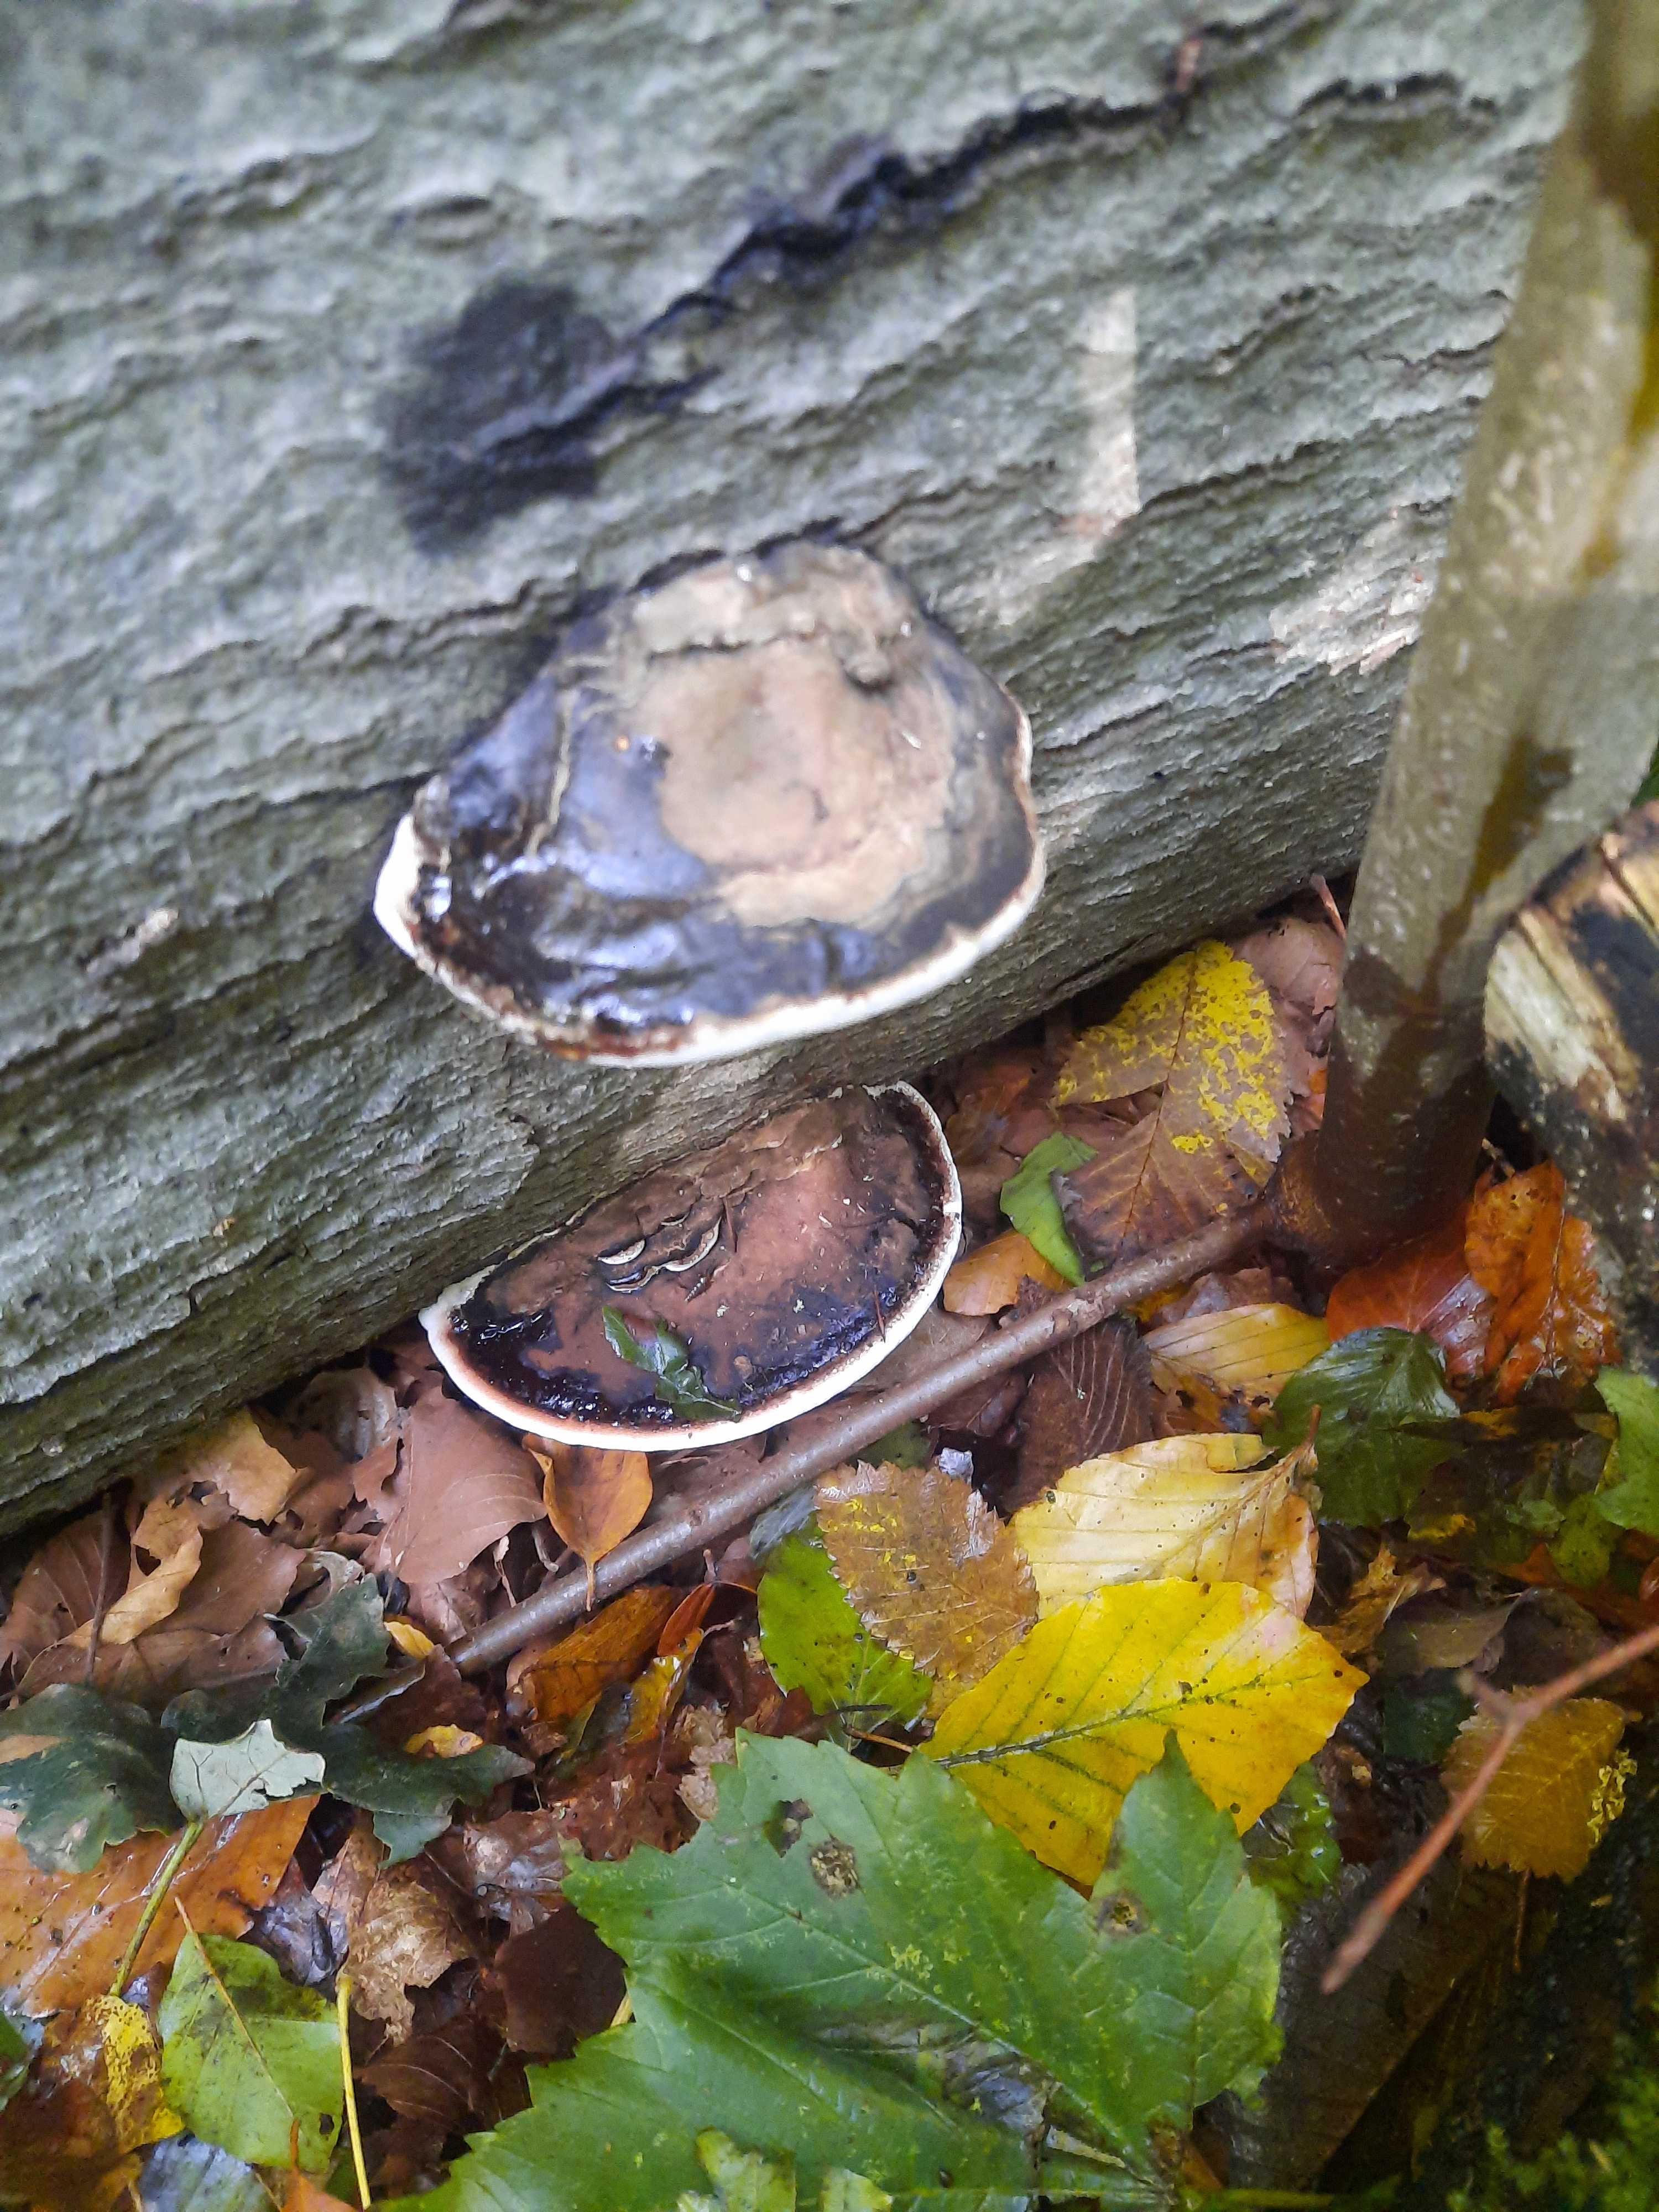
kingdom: Fungi
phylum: Basidiomycota
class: Agaricomycetes
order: Polyporales
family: Polyporaceae
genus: Ganoderma
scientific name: Ganoderma applanatum
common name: flad lakporesvamp
